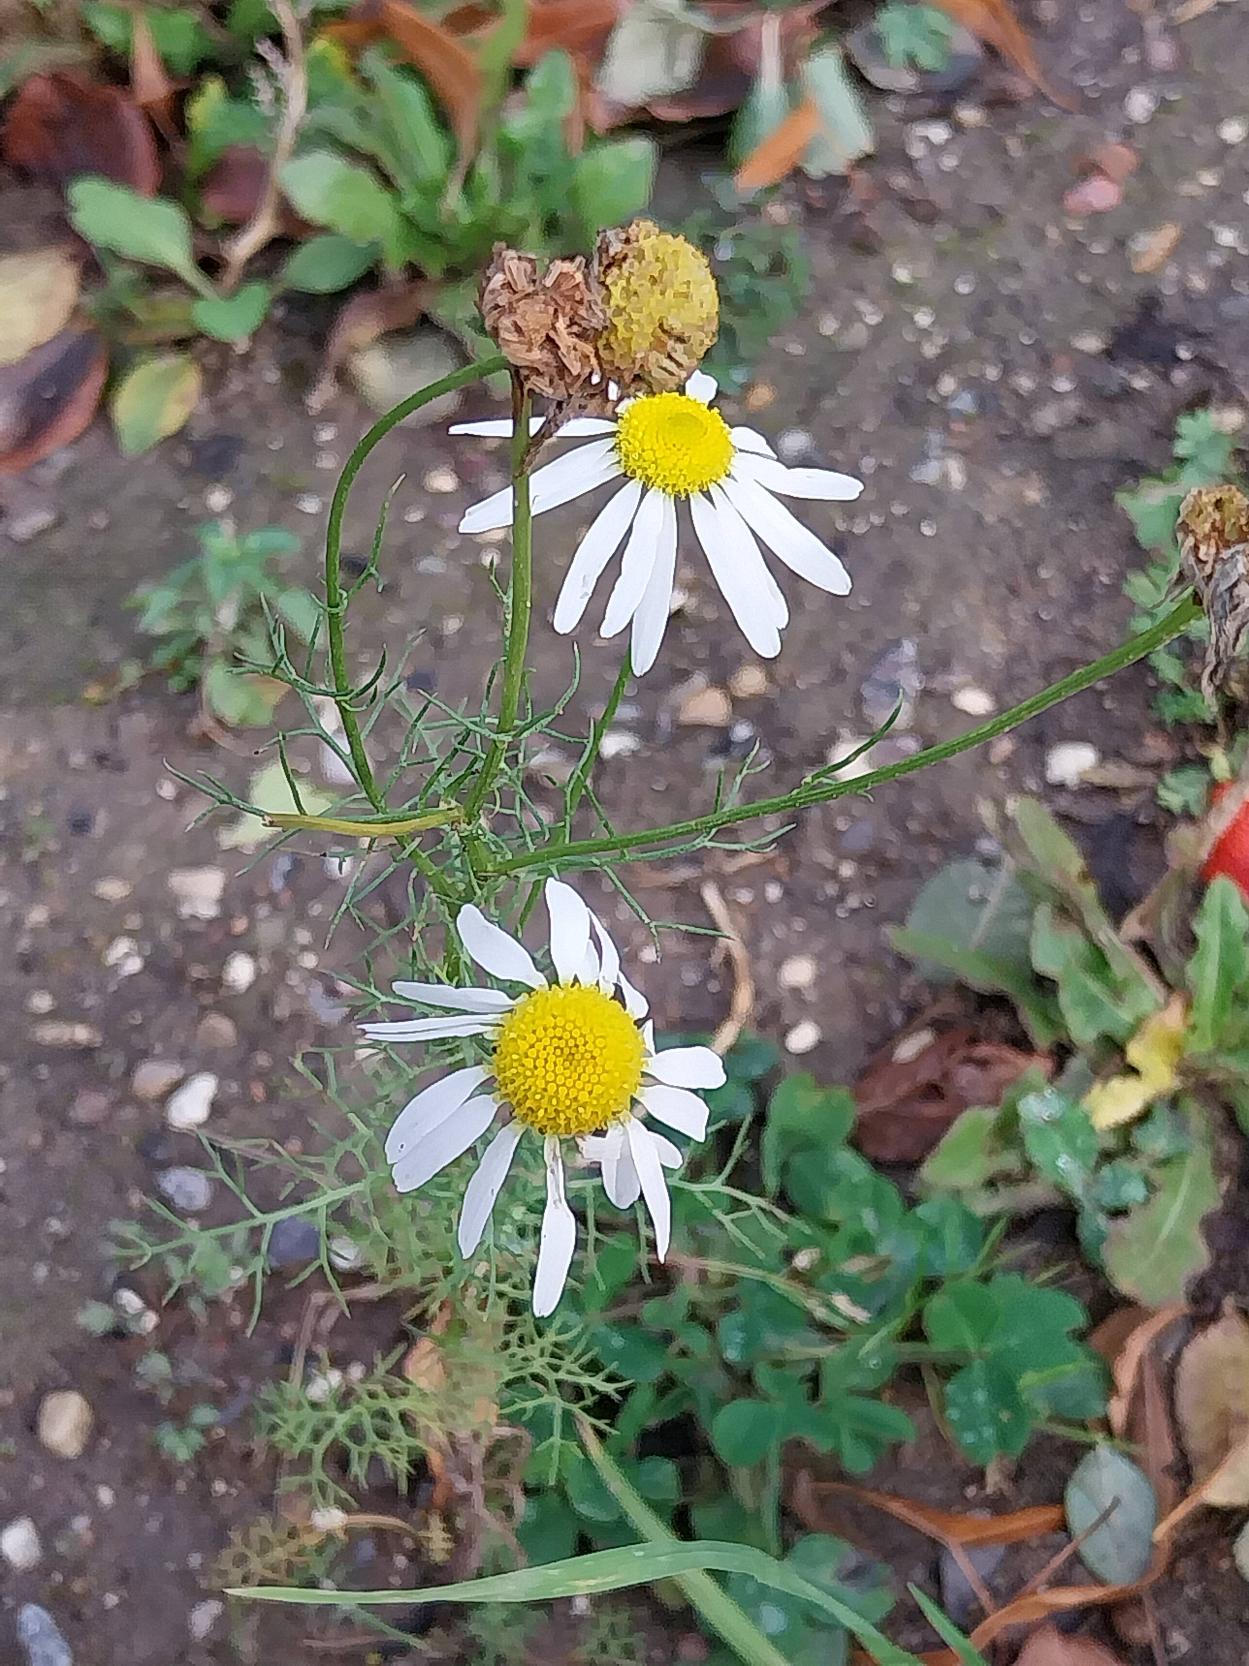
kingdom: Plantae
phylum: Tracheophyta
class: Magnoliopsida
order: Asterales
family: Asteraceae
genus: Tripleurospermum
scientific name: Tripleurospermum inodorum
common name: Lugtløs kamille
